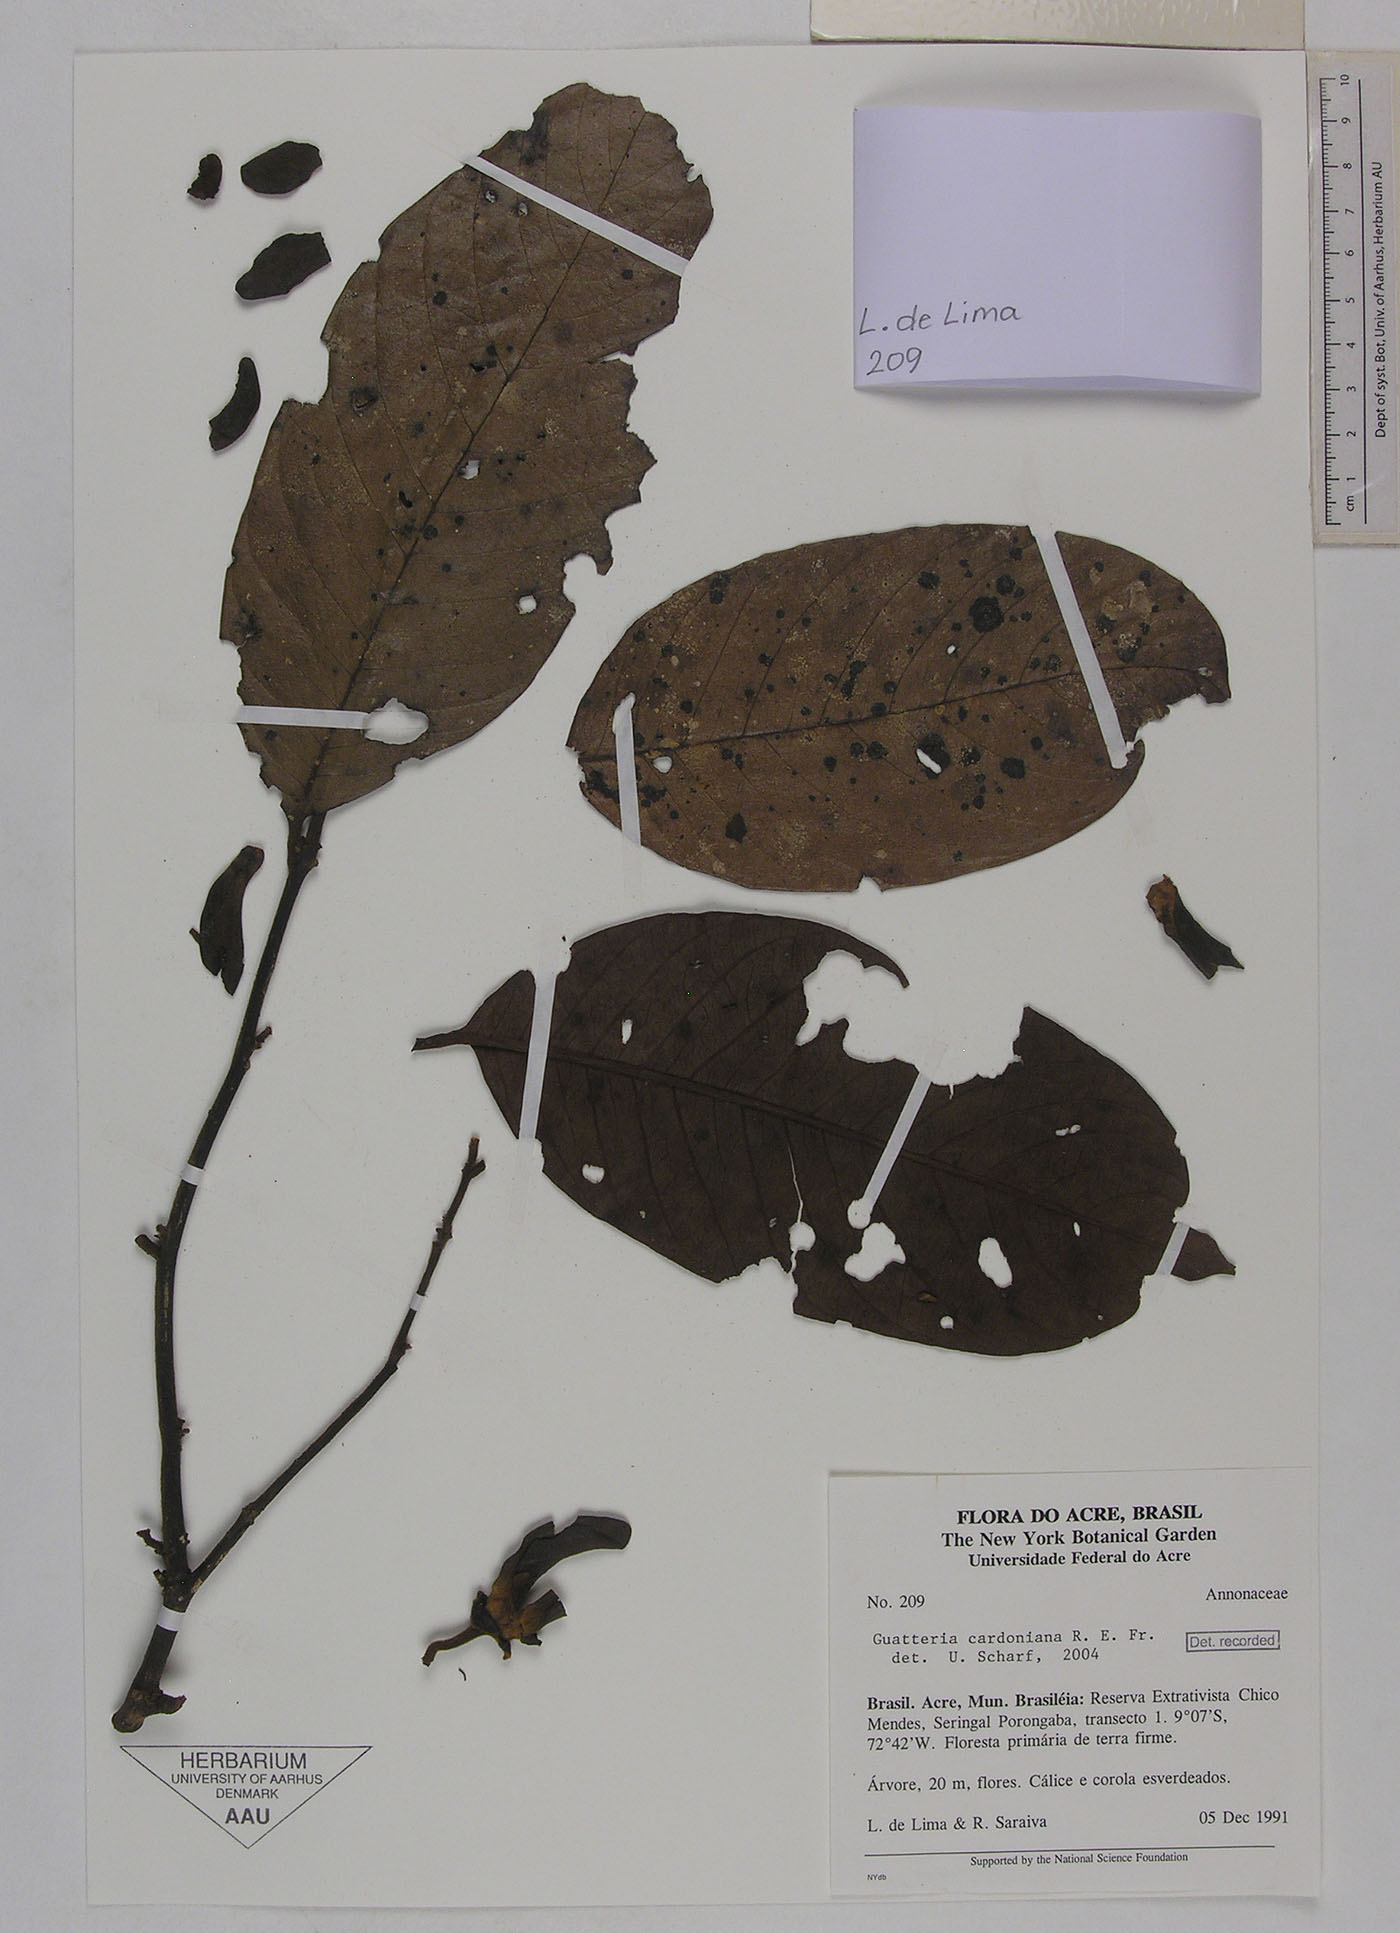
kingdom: Plantae
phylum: Tracheophyta
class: Magnoliopsida
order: Magnoliales
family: Annonaceae
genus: Guatteria
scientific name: Guatteria blepharophylla
